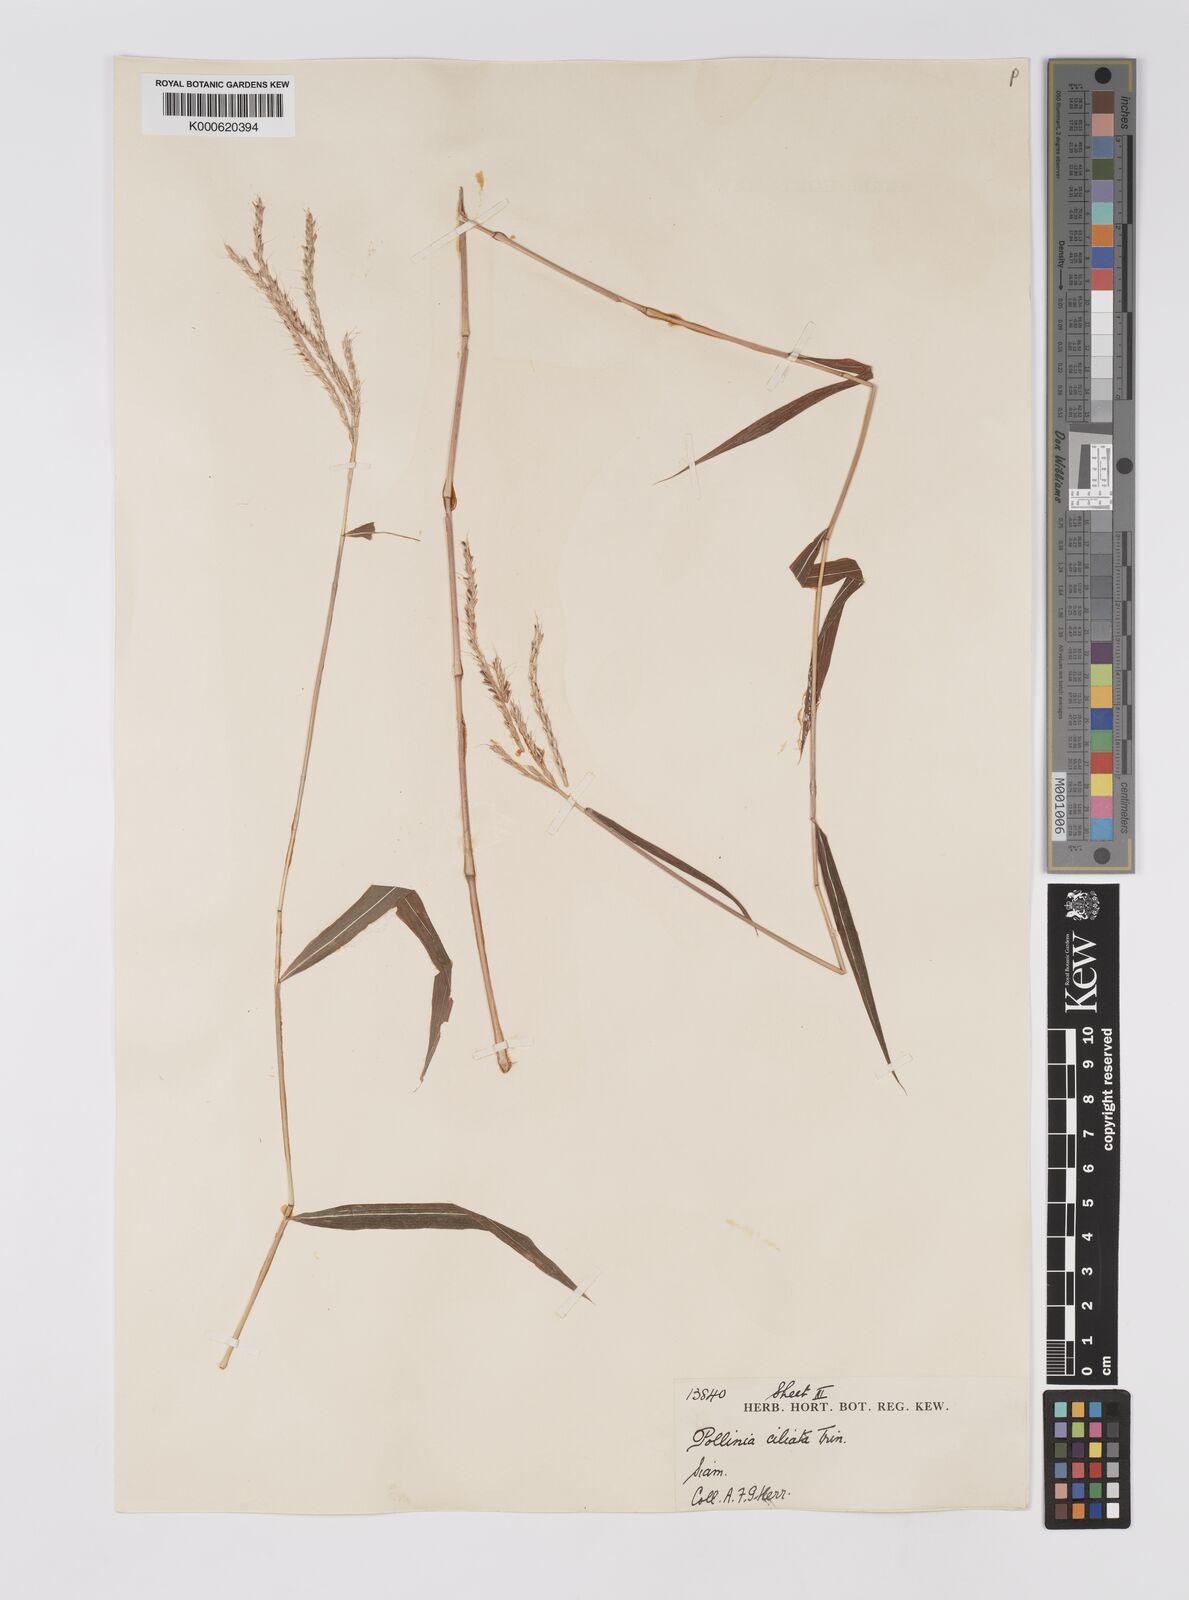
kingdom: Plantae
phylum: Tracheophyta
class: Liliopsida
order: Poales
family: Poaceae
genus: Microstegium
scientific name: Microstegium fasciculatum
